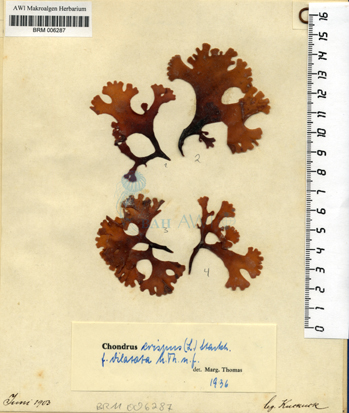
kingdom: Plantae
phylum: Rhodophyta
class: Florideophyceae
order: Gigartinales
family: Gigartinaceae
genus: Chondrus
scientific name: Chondrus crispus
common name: Carrageen
